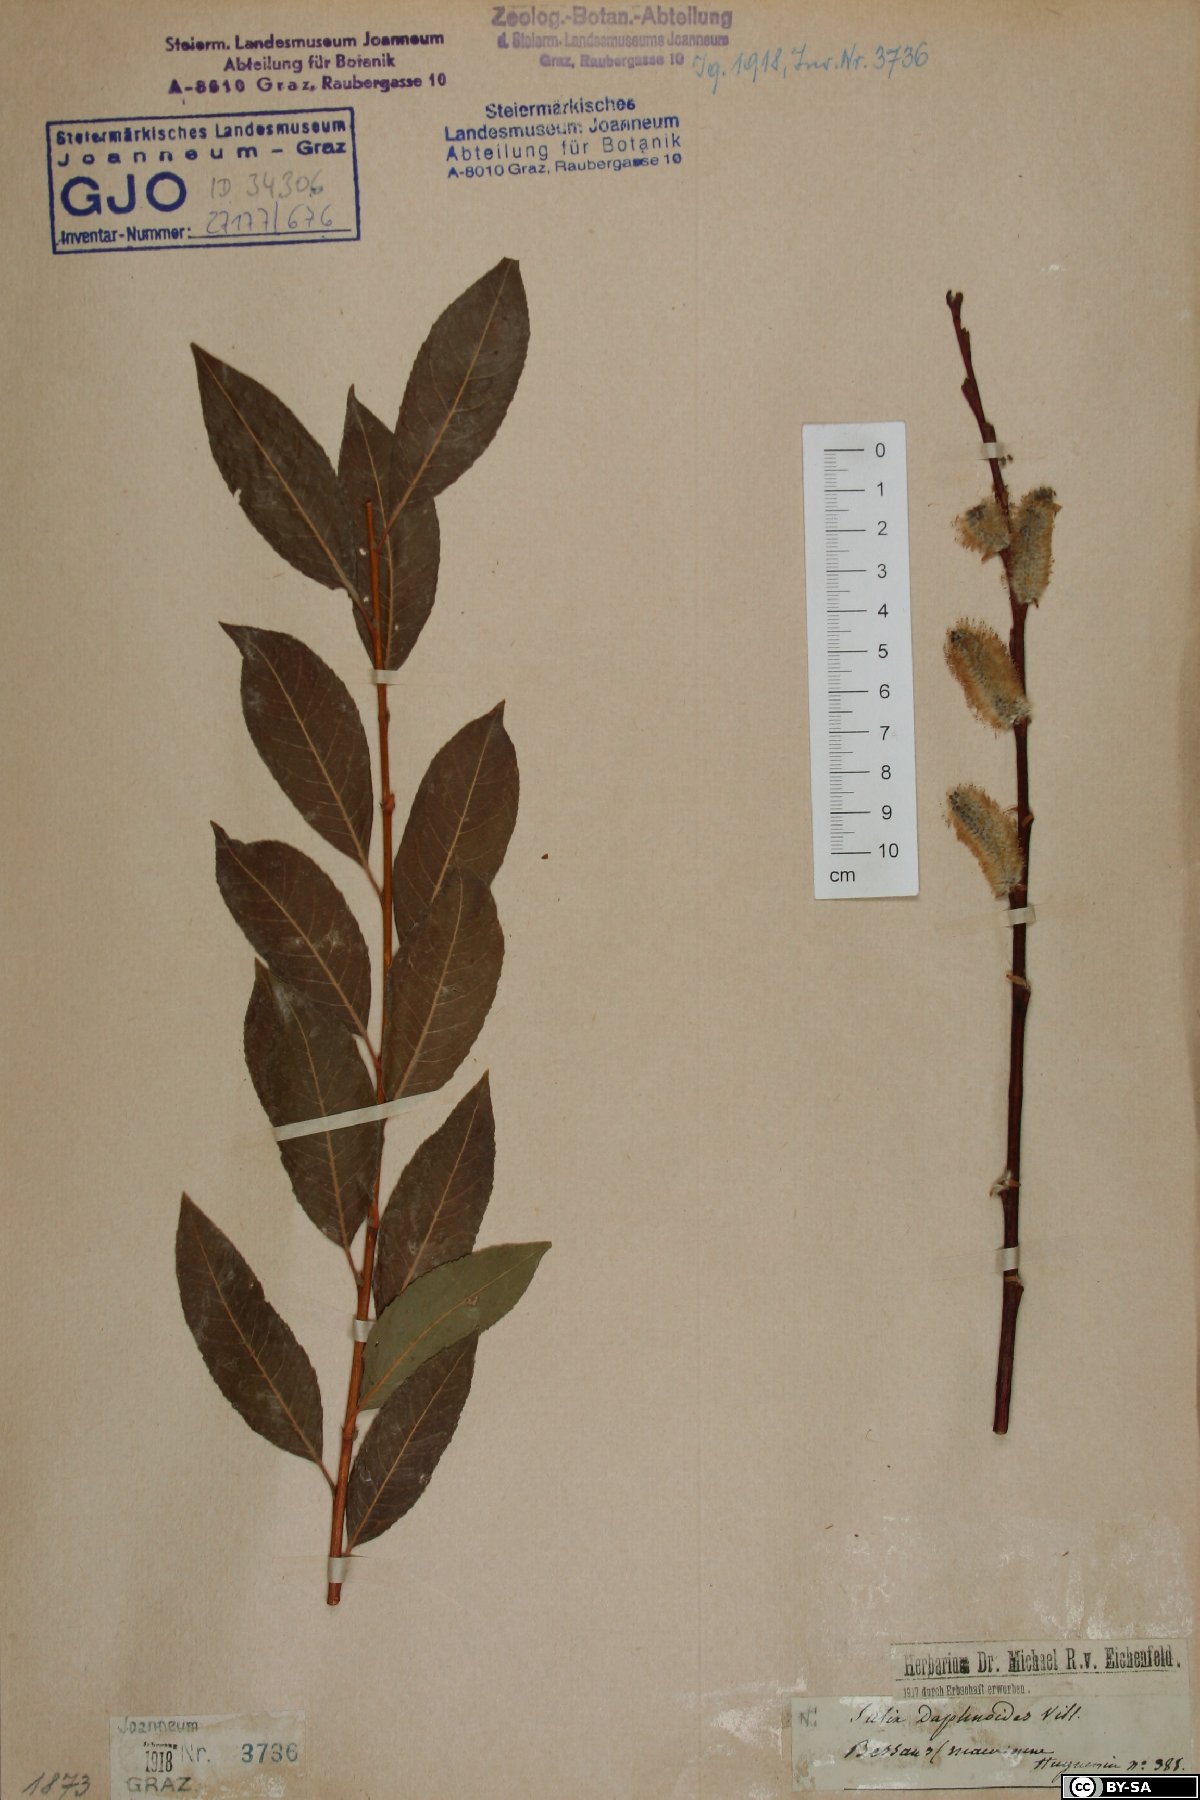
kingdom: Plantae
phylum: Tracheophyta
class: Magnoliopsida
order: Malpighiales
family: Salicaceae
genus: Salix
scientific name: Salix daphnoides
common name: European violet-willow
